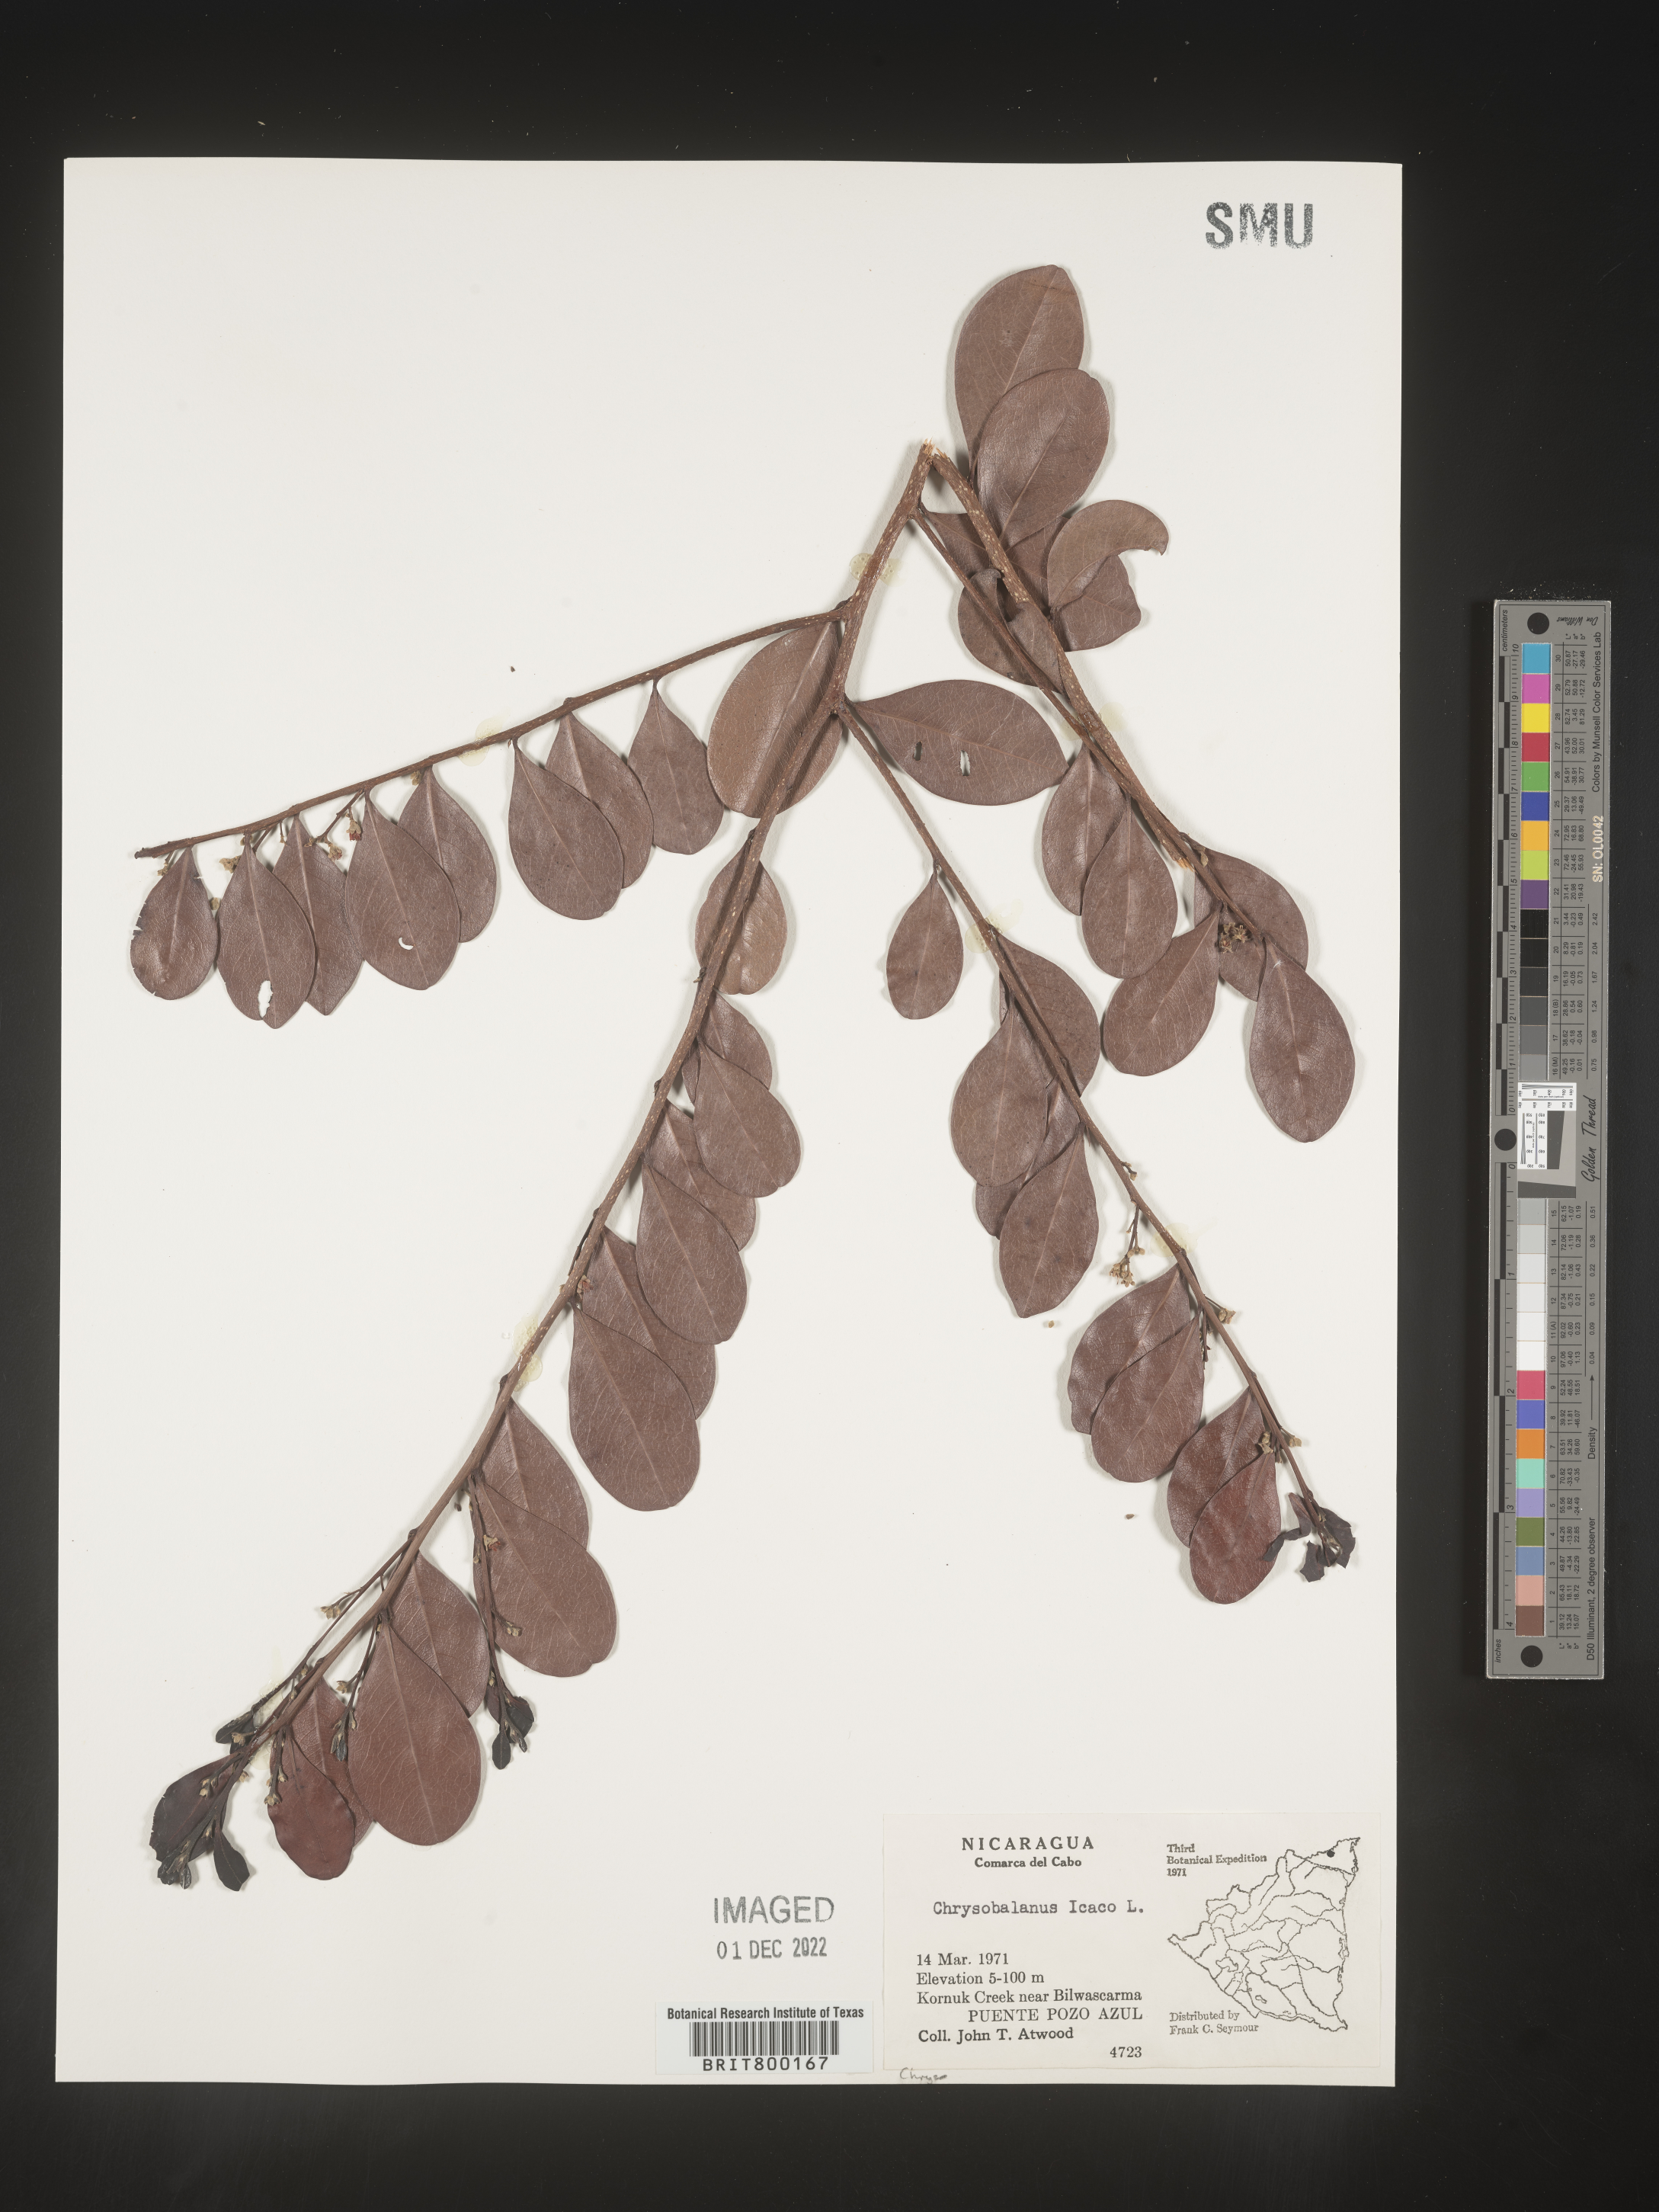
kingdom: Plantae
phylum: Tracheophyta
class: Magnoliopsida
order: Malpighiales
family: Chrysobalanaceae
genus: Chrysobalanus
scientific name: Chrysobalanus
